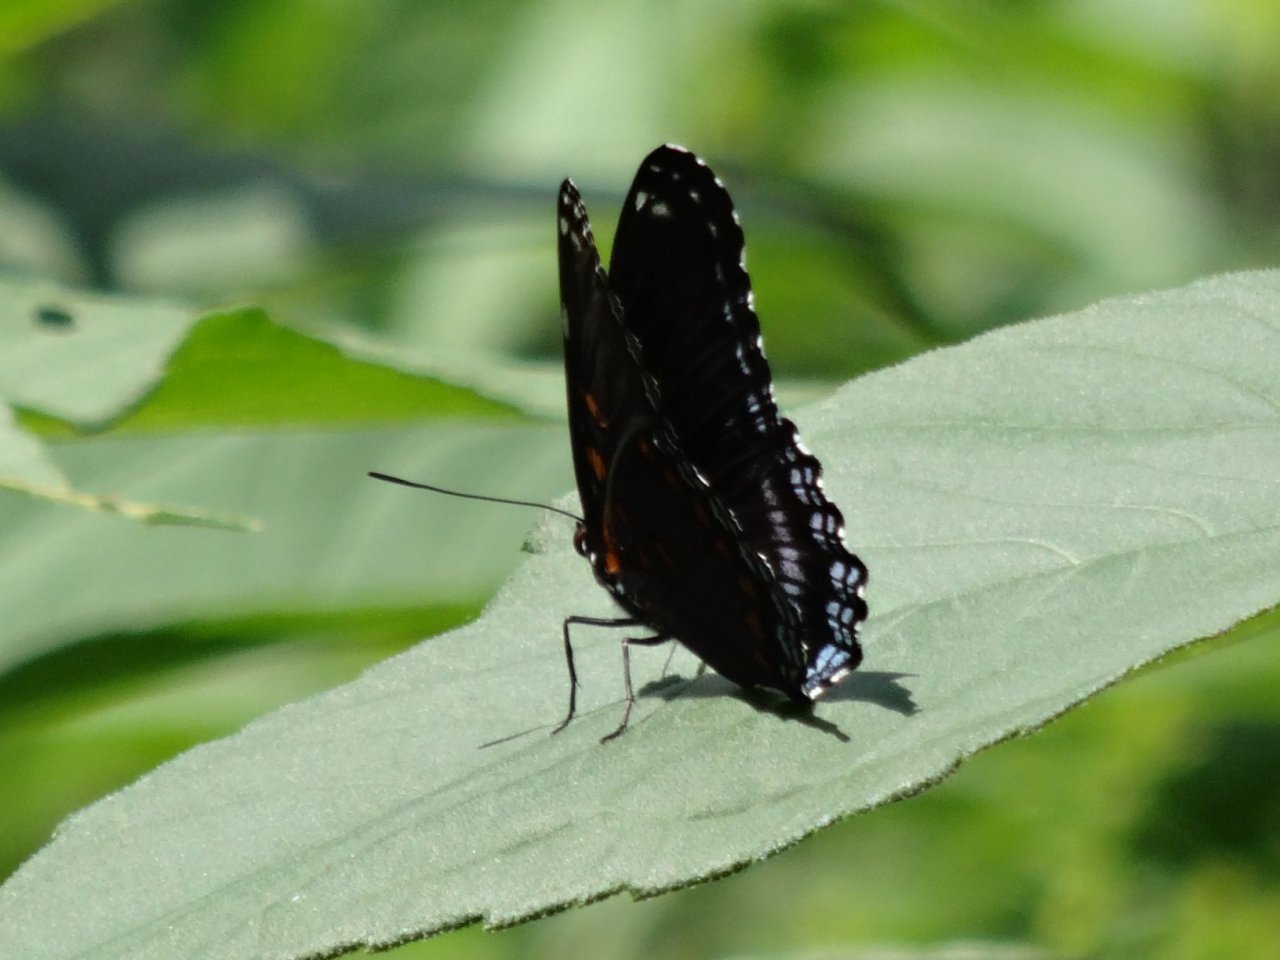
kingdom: Animalia
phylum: Arthropoda
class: Insecta
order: Lepidoptera
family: Nymphalidae
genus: Limenitis
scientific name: Limenitis
